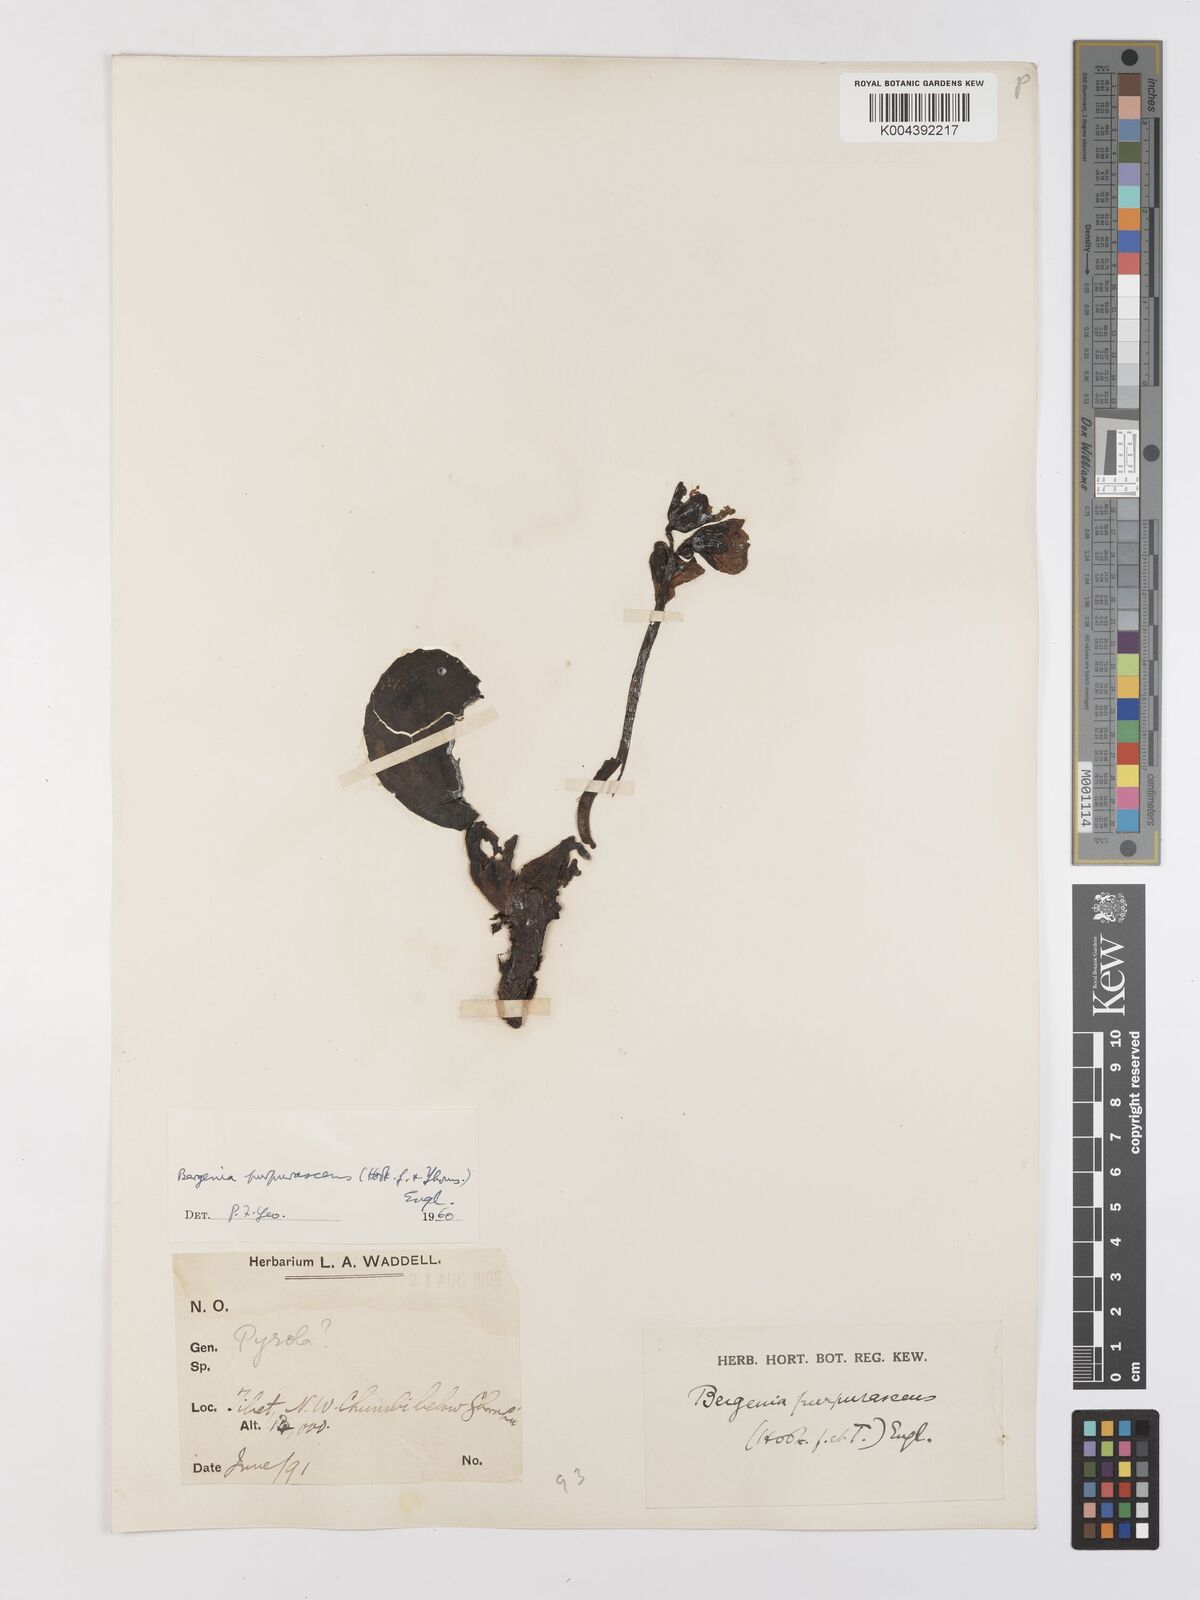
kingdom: Plantae
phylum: Tracheophyta
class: Magnoliopsida
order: Saxifragales
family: Saxifragaceae
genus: Bergenia
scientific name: Bergenia purpurascens
